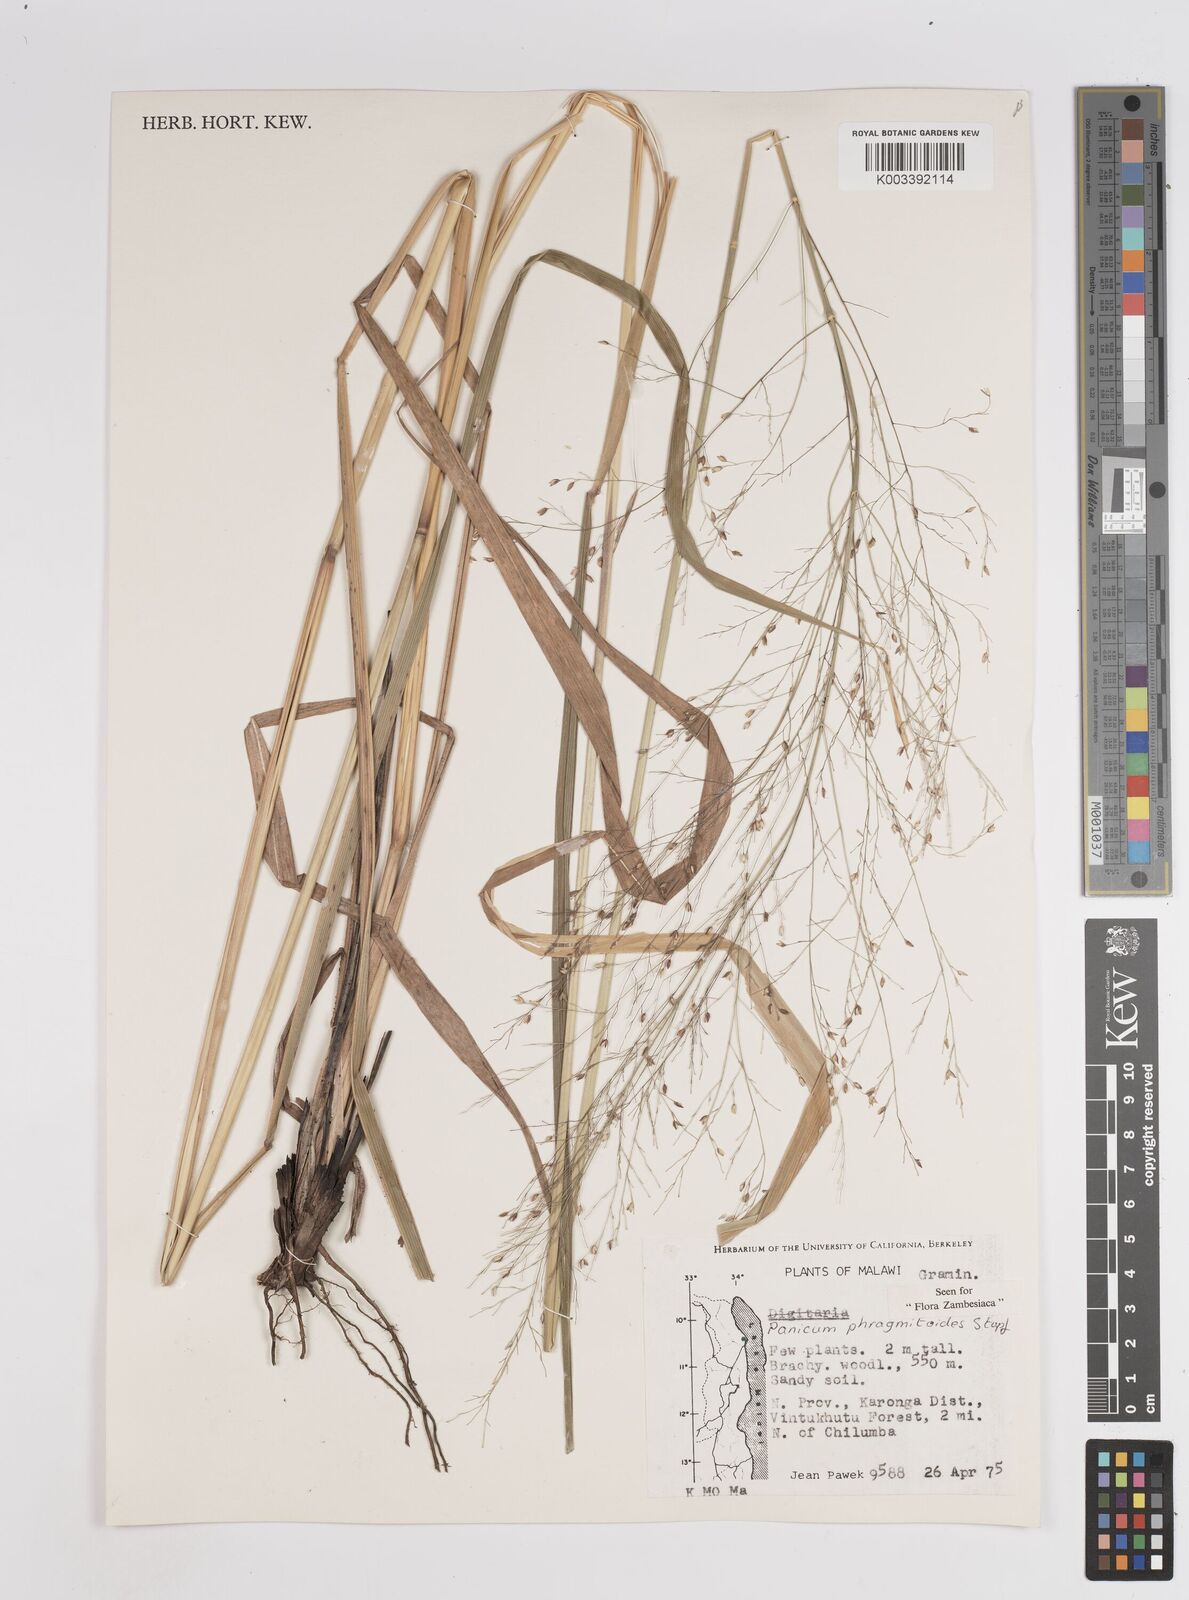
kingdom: Plantae
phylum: Tracheophyta
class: Liliopsida
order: Poales
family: Poaceae
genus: Panicum
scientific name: Panicum phragmitoides
